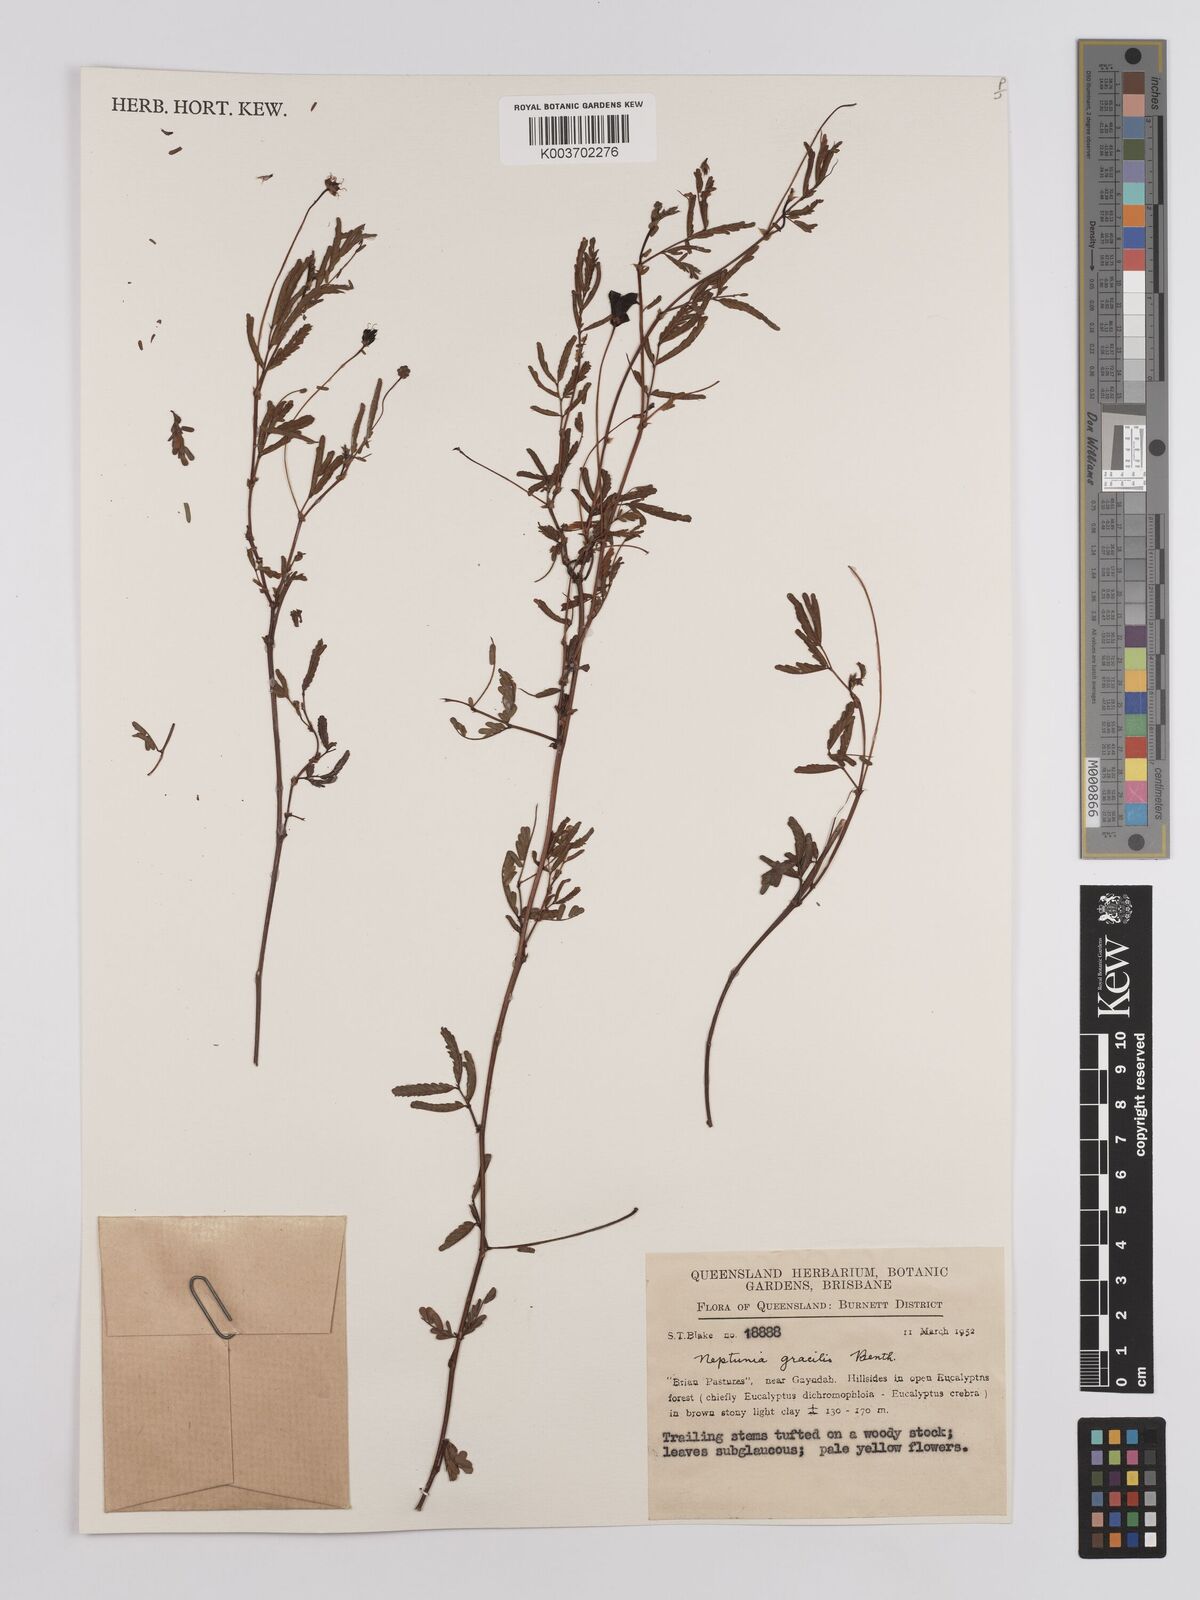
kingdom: Plantae
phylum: Tracheophyta
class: Magnoliopsida
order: Fabales
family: Fabaceae
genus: Neptunia
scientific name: Neptunia gracilis
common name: Sensitive-plant
